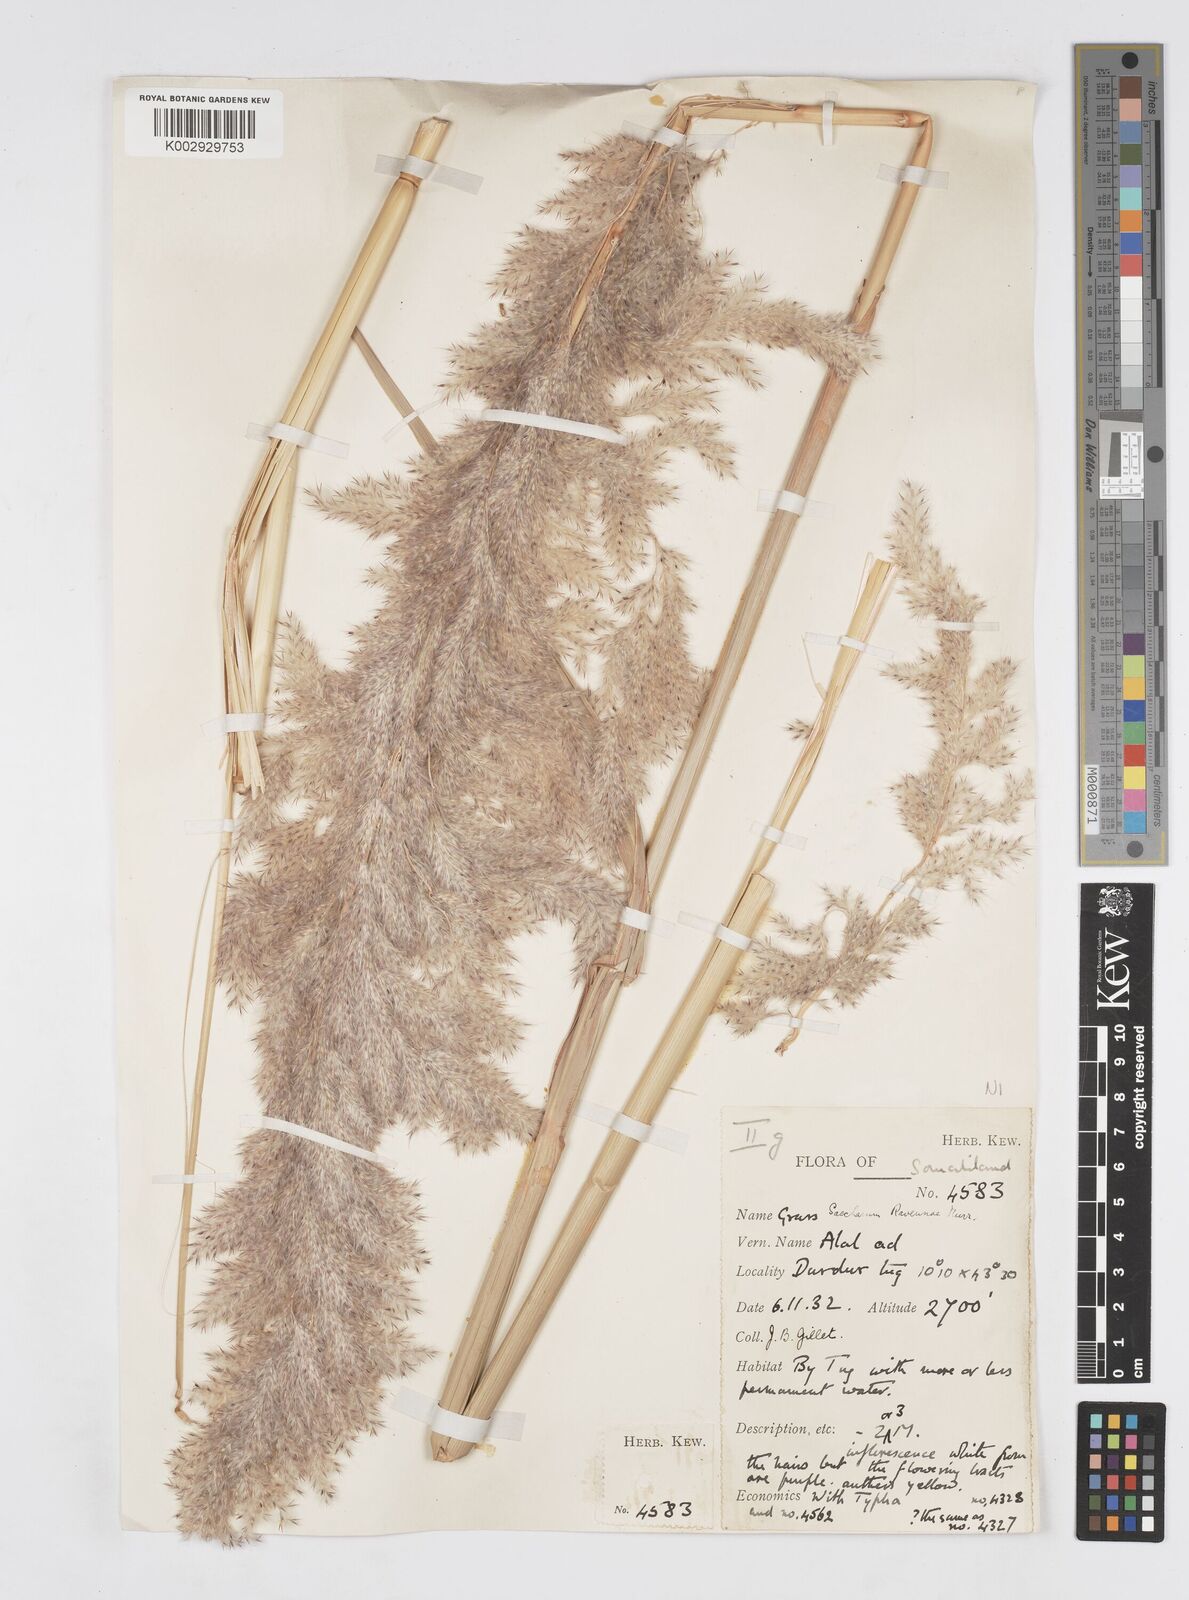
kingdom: Plantae
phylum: Tracheophyta
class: Liliopsida
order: Poales
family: Poaceae
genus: Tripidium
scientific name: Tripidium ravennae
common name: Ravenna grass
